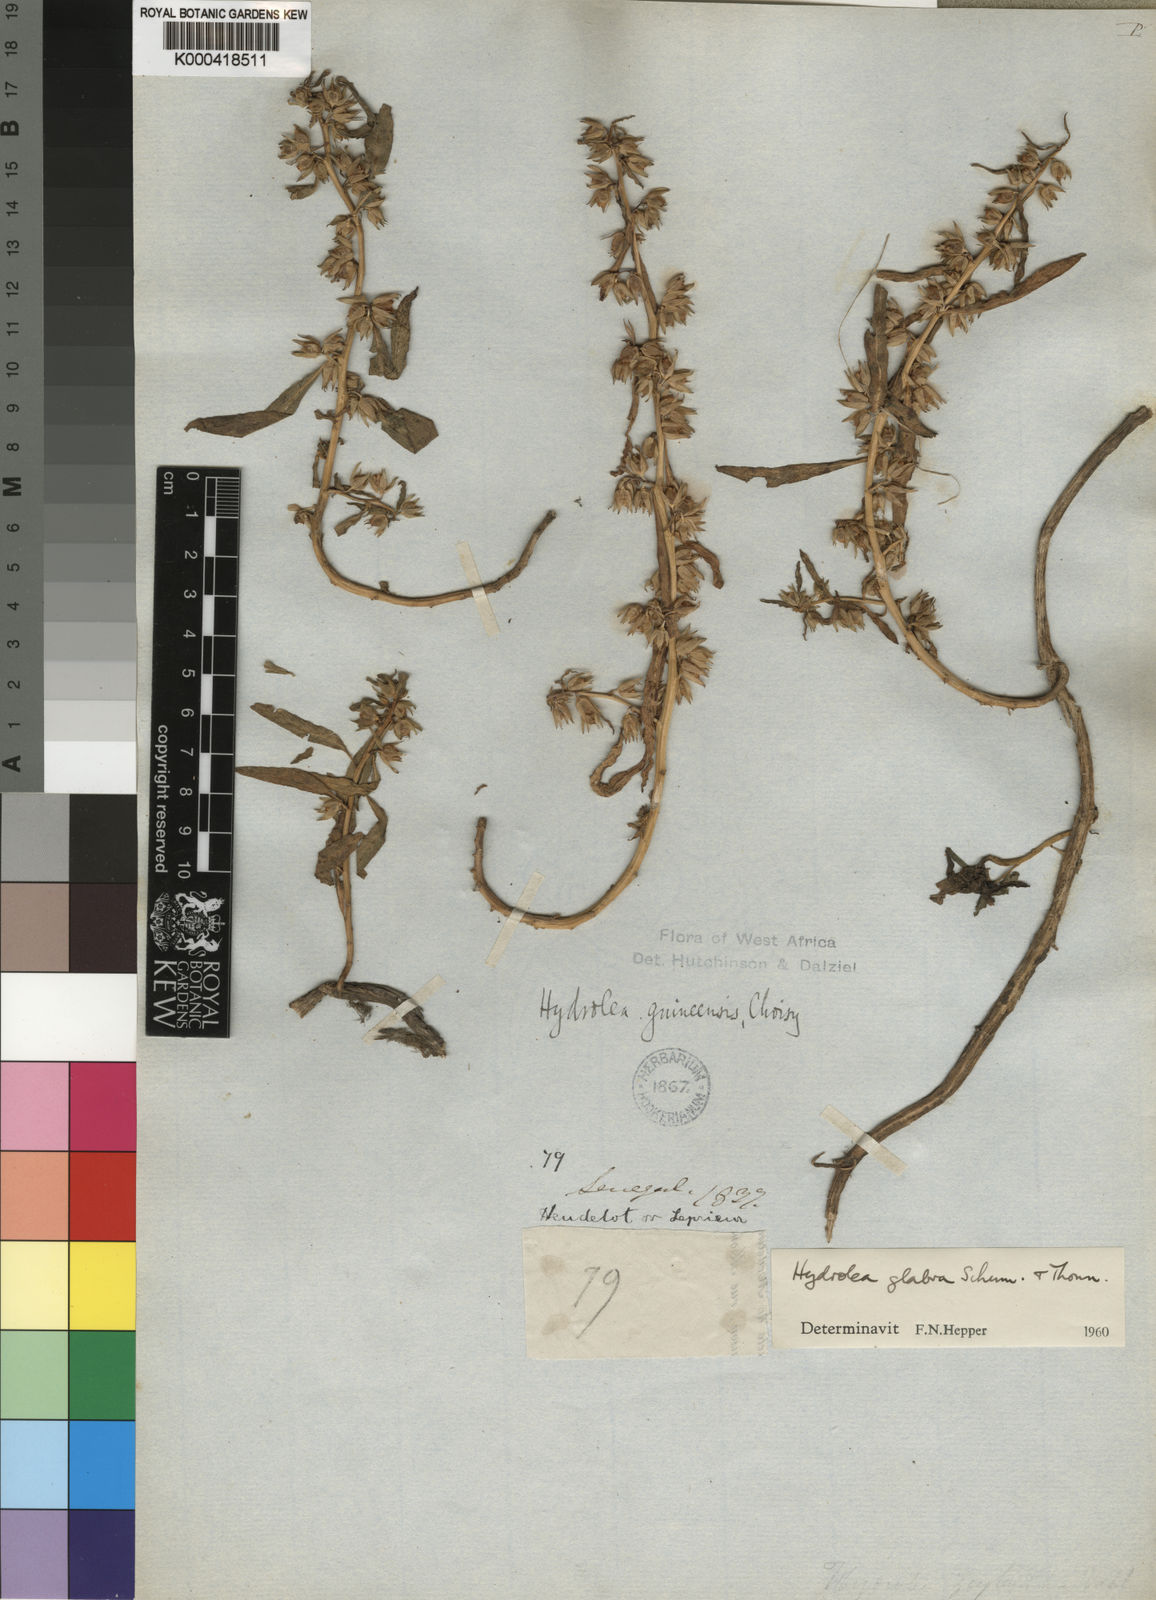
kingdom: Plantae
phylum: Tracheophyta
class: Magnoliopsida
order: Solanales
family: Hydroleaceae
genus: Hydrolea
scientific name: Hydrolea
